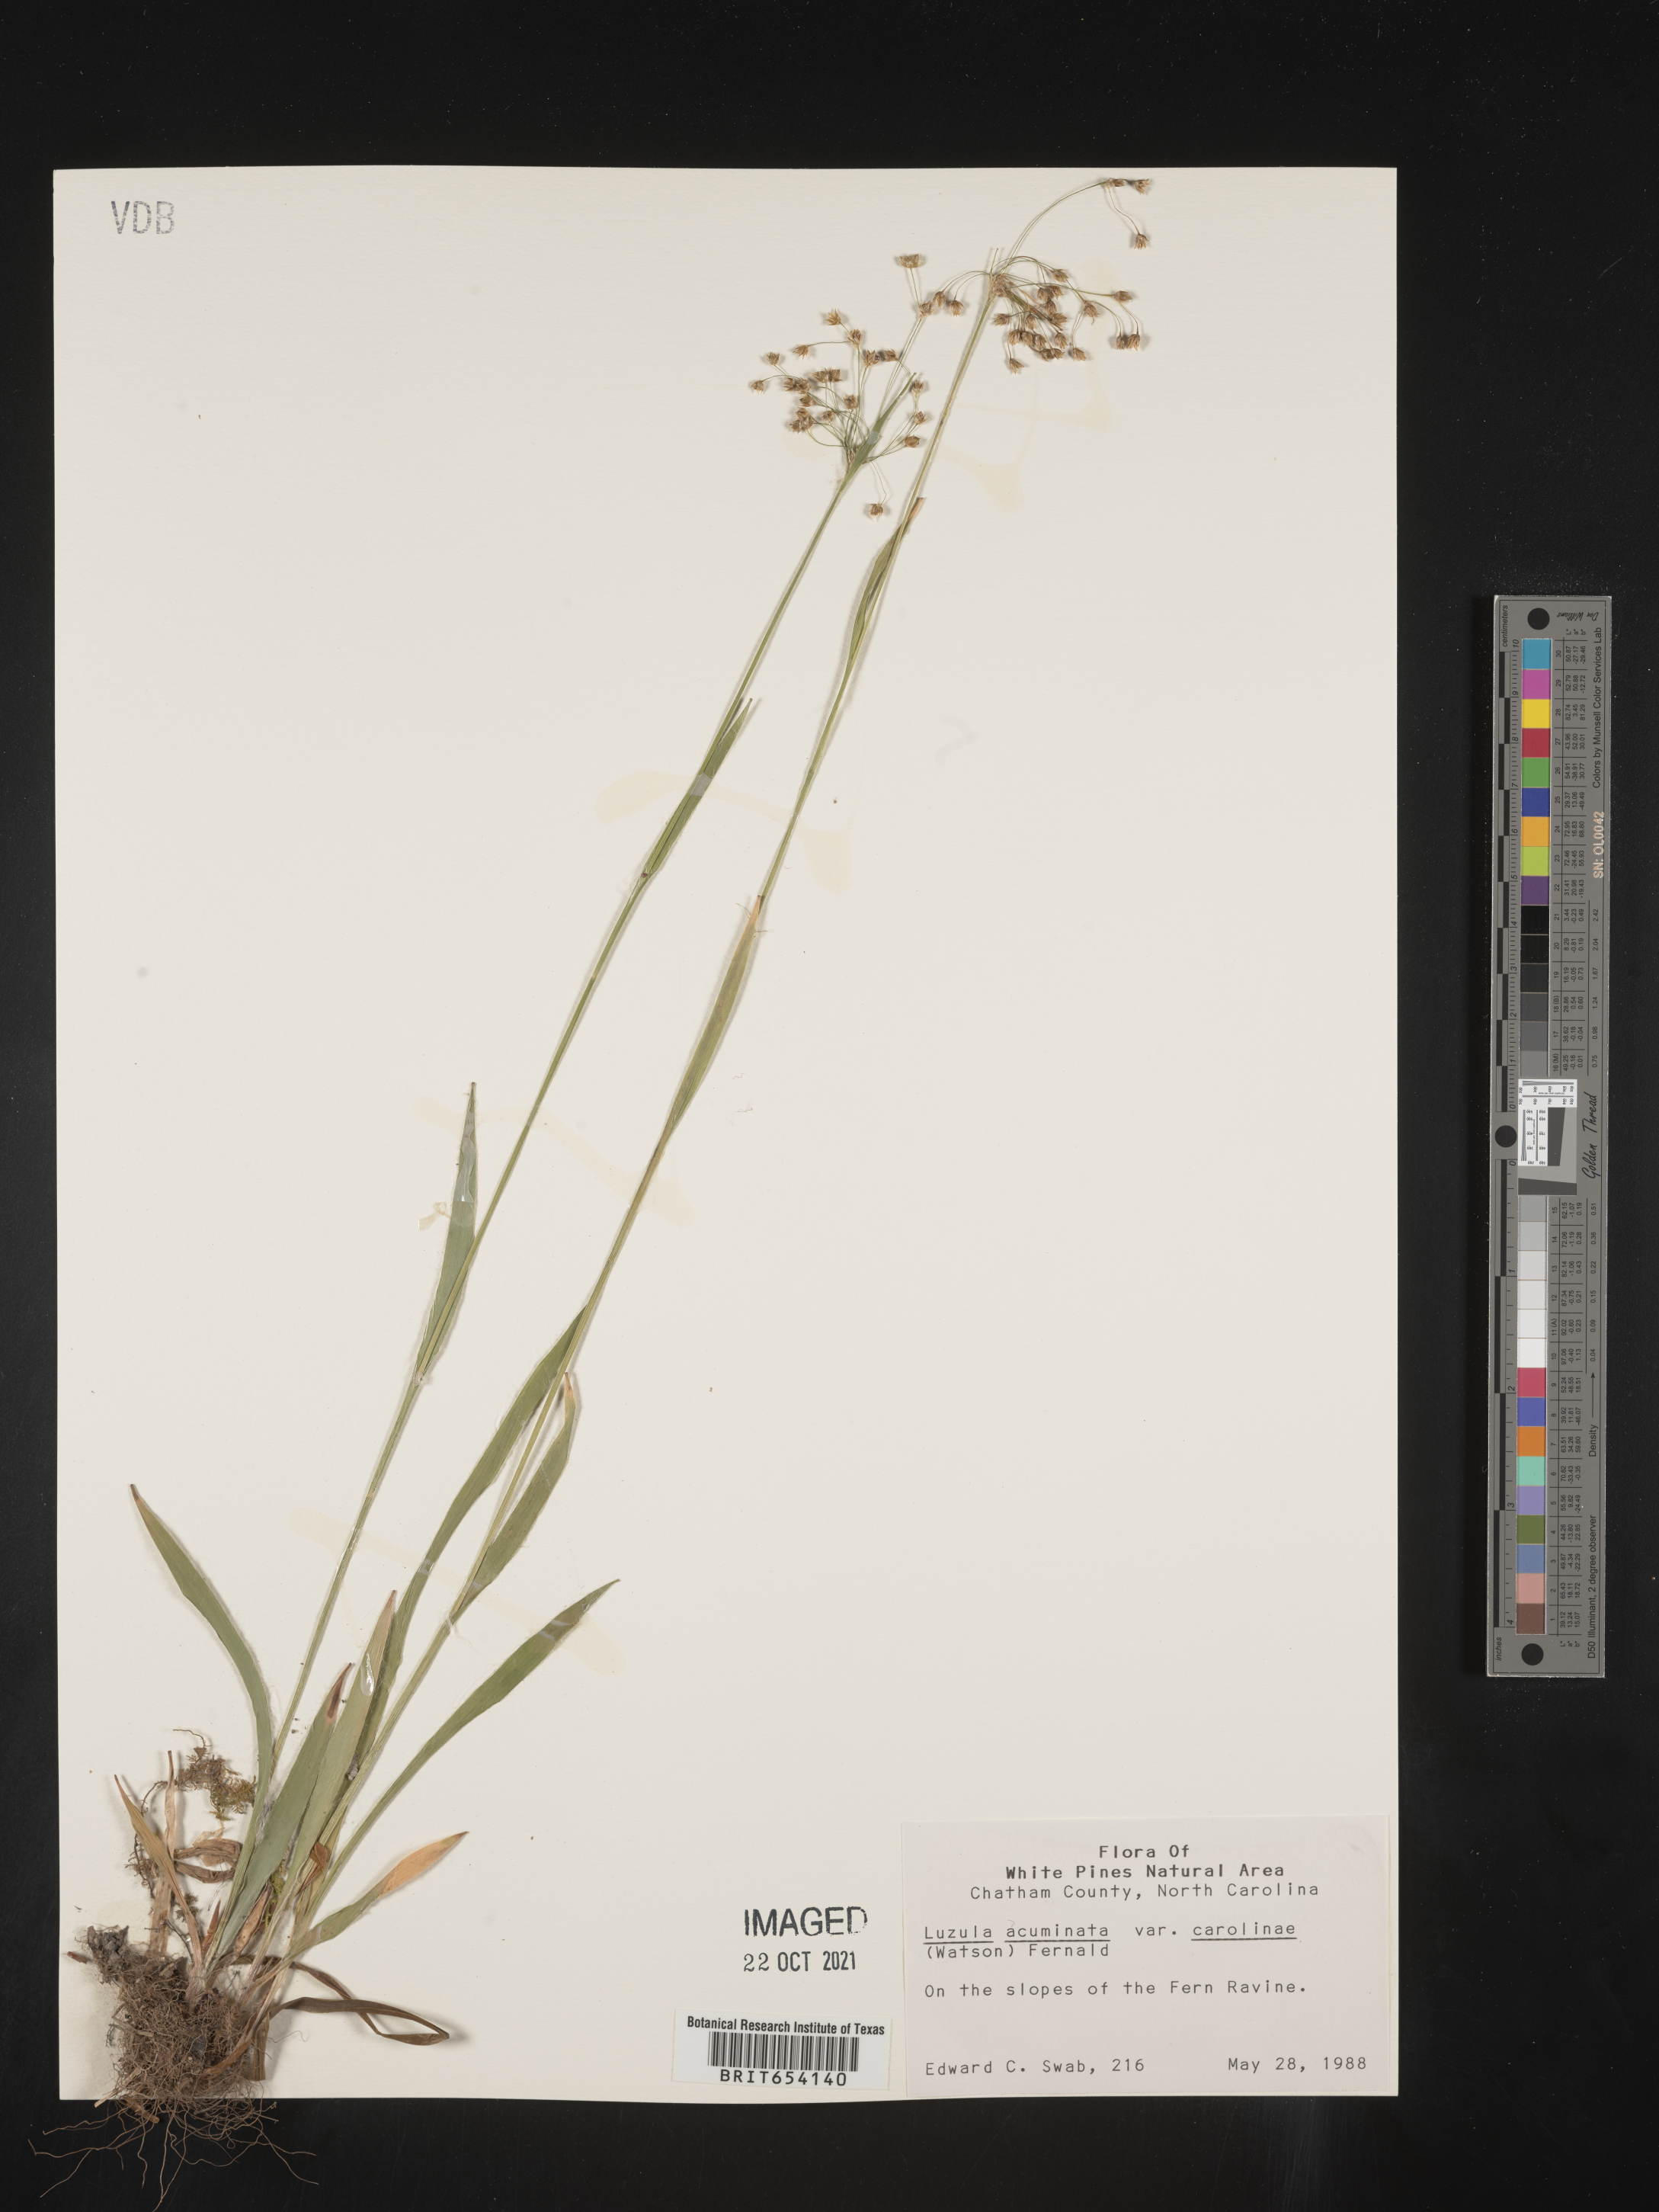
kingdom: Plantae
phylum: Tracheophyta
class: Liliopsida
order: Poales
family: Juncaceae
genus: Luzula
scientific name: Luzula acuminata
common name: Hairy woodrush
